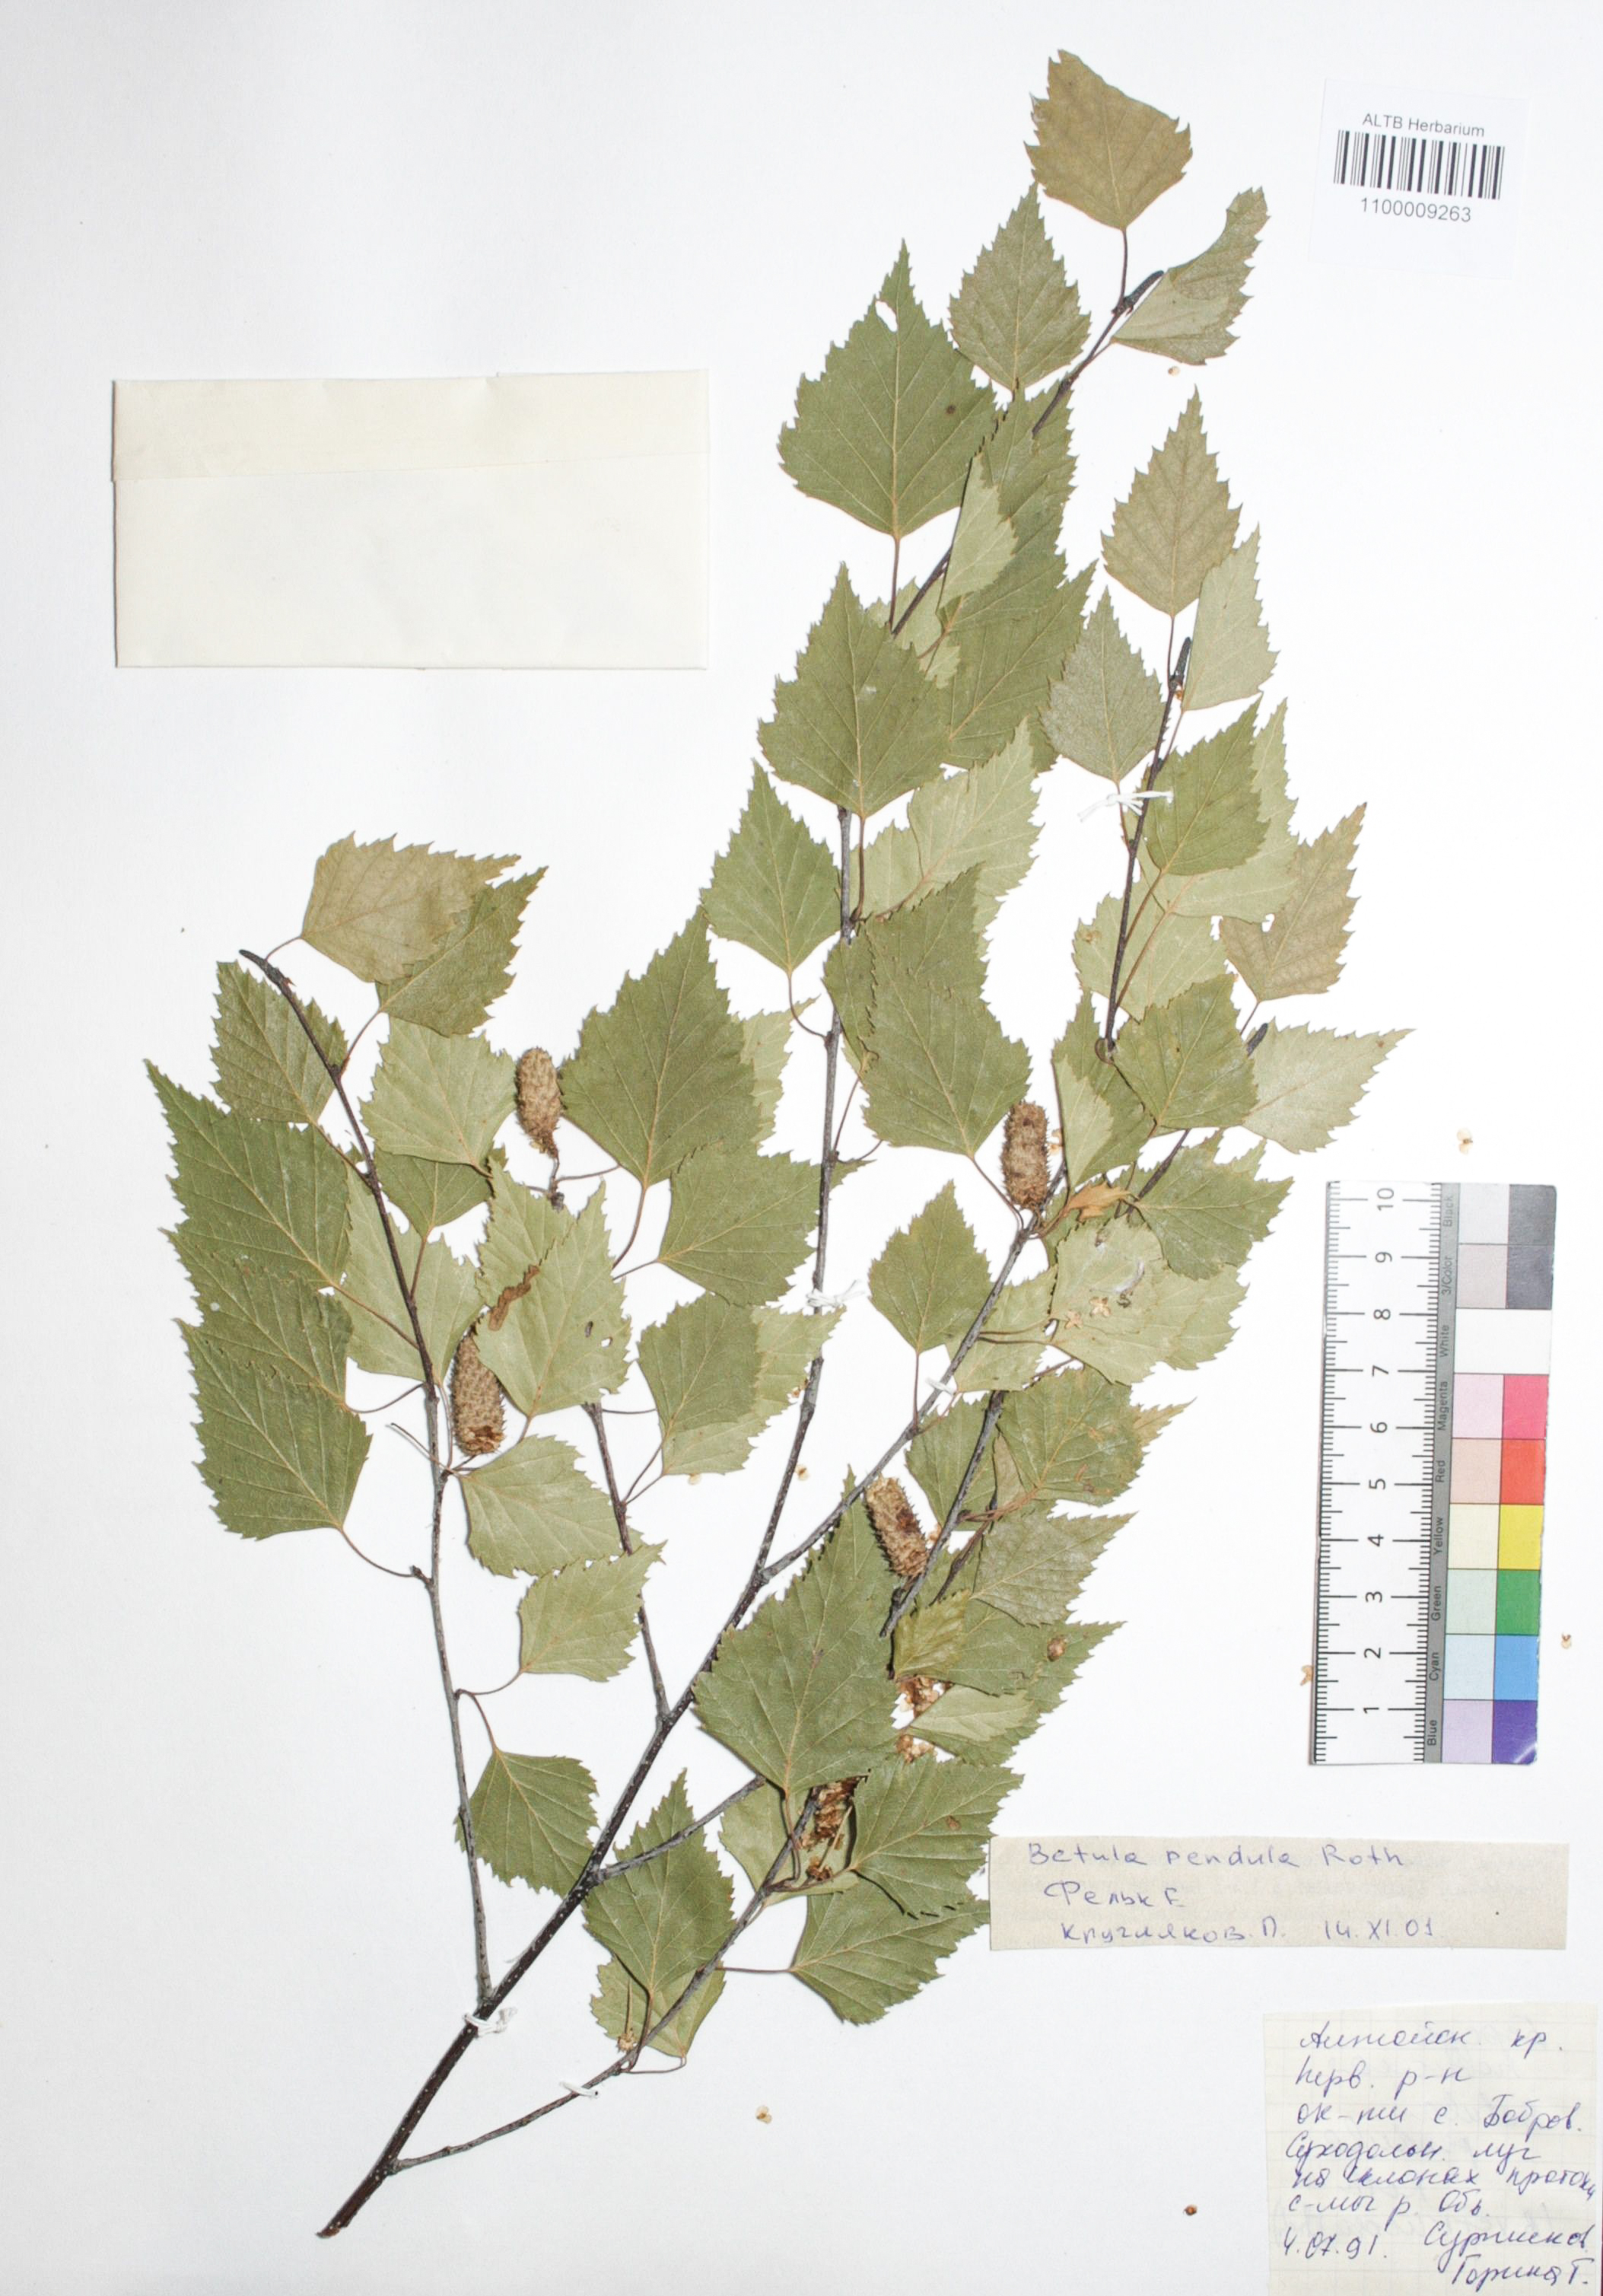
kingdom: Plantae
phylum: Tracheophyta
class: Magnoliopsida
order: Fagales
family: Betulaceae
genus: Betula
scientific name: Betula pendula
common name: Silver birch
